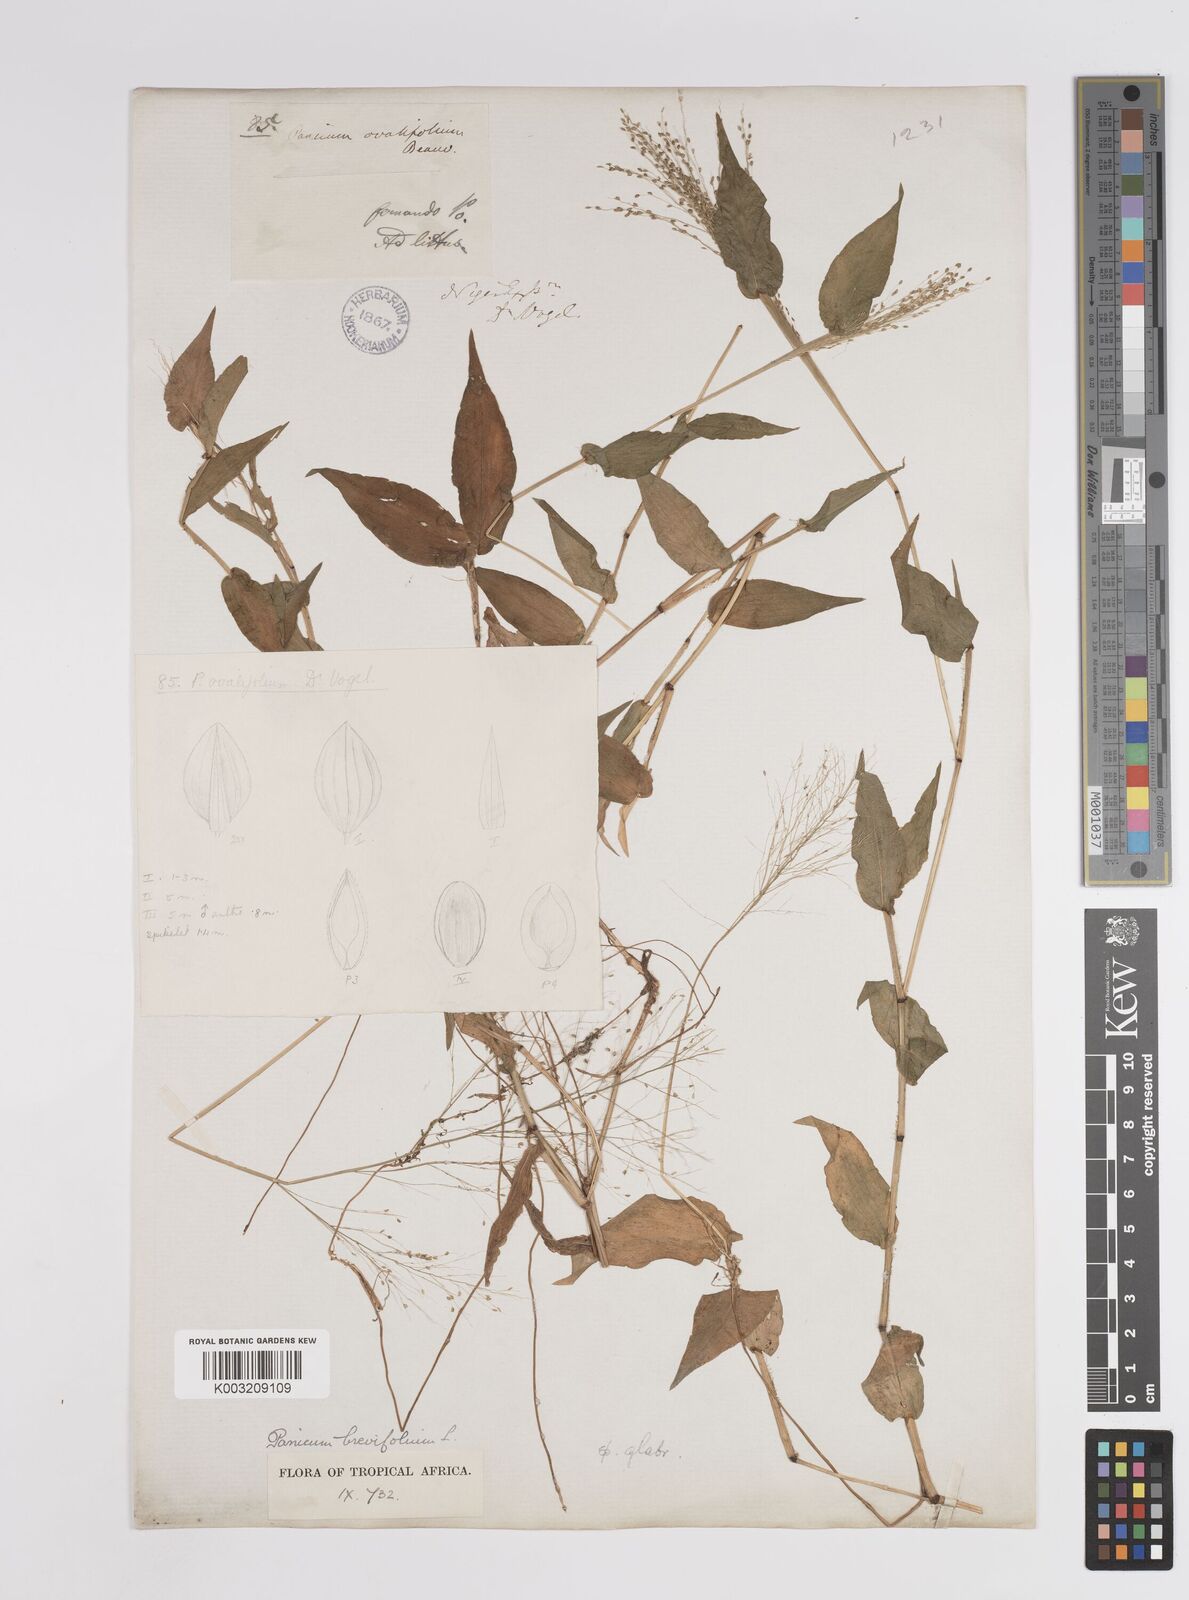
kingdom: Plantae
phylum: Tracheophyta
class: Liliopsida
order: Poales
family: Poaceae
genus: Panicum
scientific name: Panicum brevifolium
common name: Shortleaf panic grass
